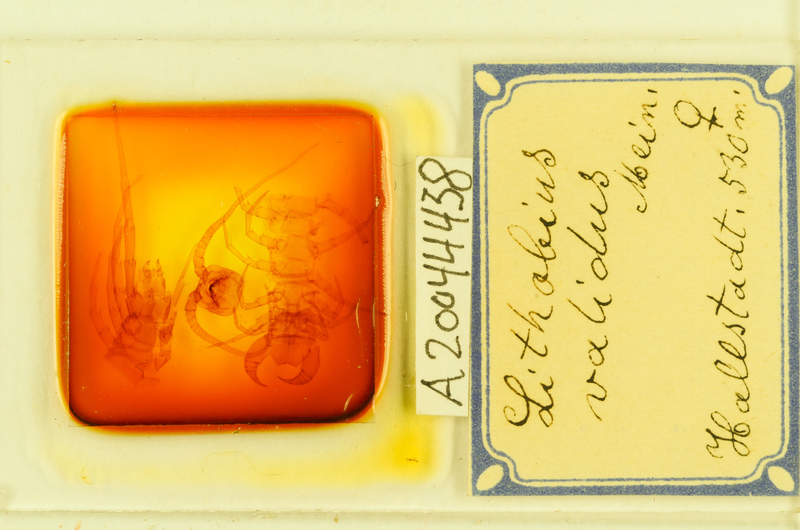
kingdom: Animalia
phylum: Arthropoda
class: Chilopoda
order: Lithobiomorpha
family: Lithobiidae
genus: Lithobius
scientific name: Lithobius punctulatus
